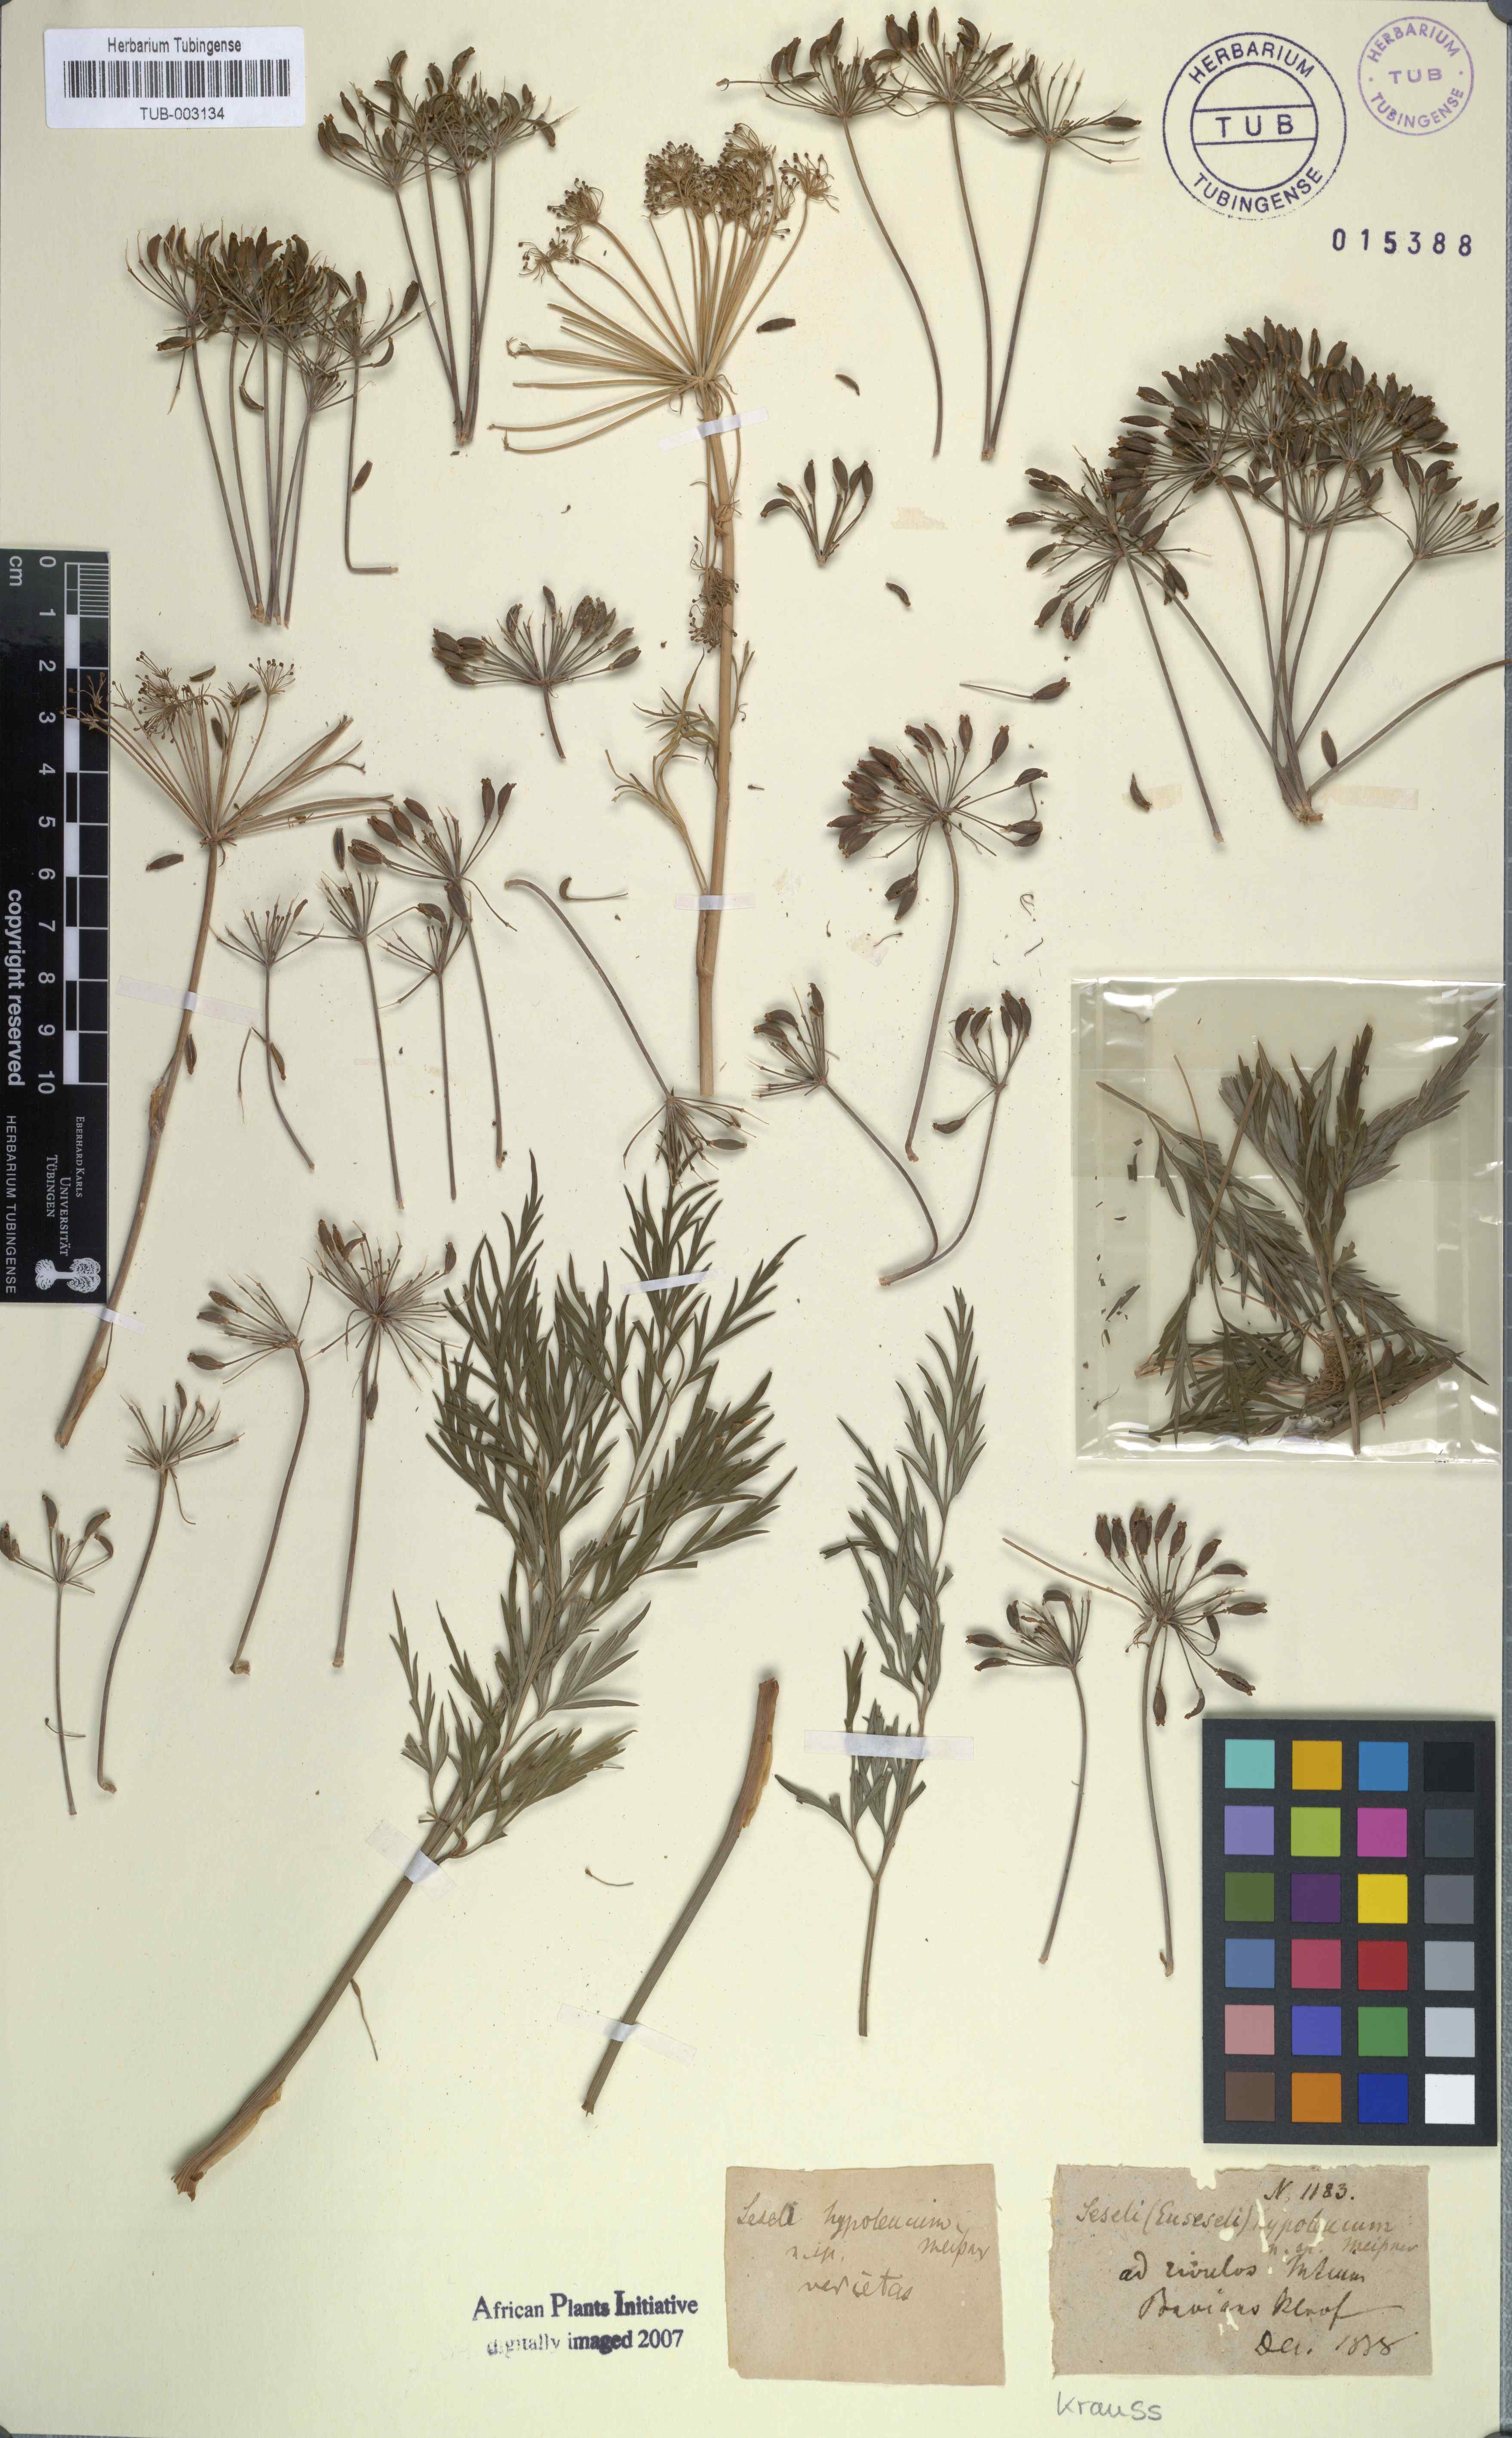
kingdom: Plantae
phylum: Tracheophyta
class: Magnoliopsida
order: Apiales
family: Apiaceae
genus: Notobubon
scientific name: Notobubon gummiferum
